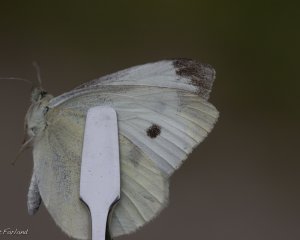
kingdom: Animalia
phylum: Arthropoda
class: Insecta
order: Lepidoptera
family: Pieridae
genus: Pieris
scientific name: Pieris rapae
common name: Cabbage White
